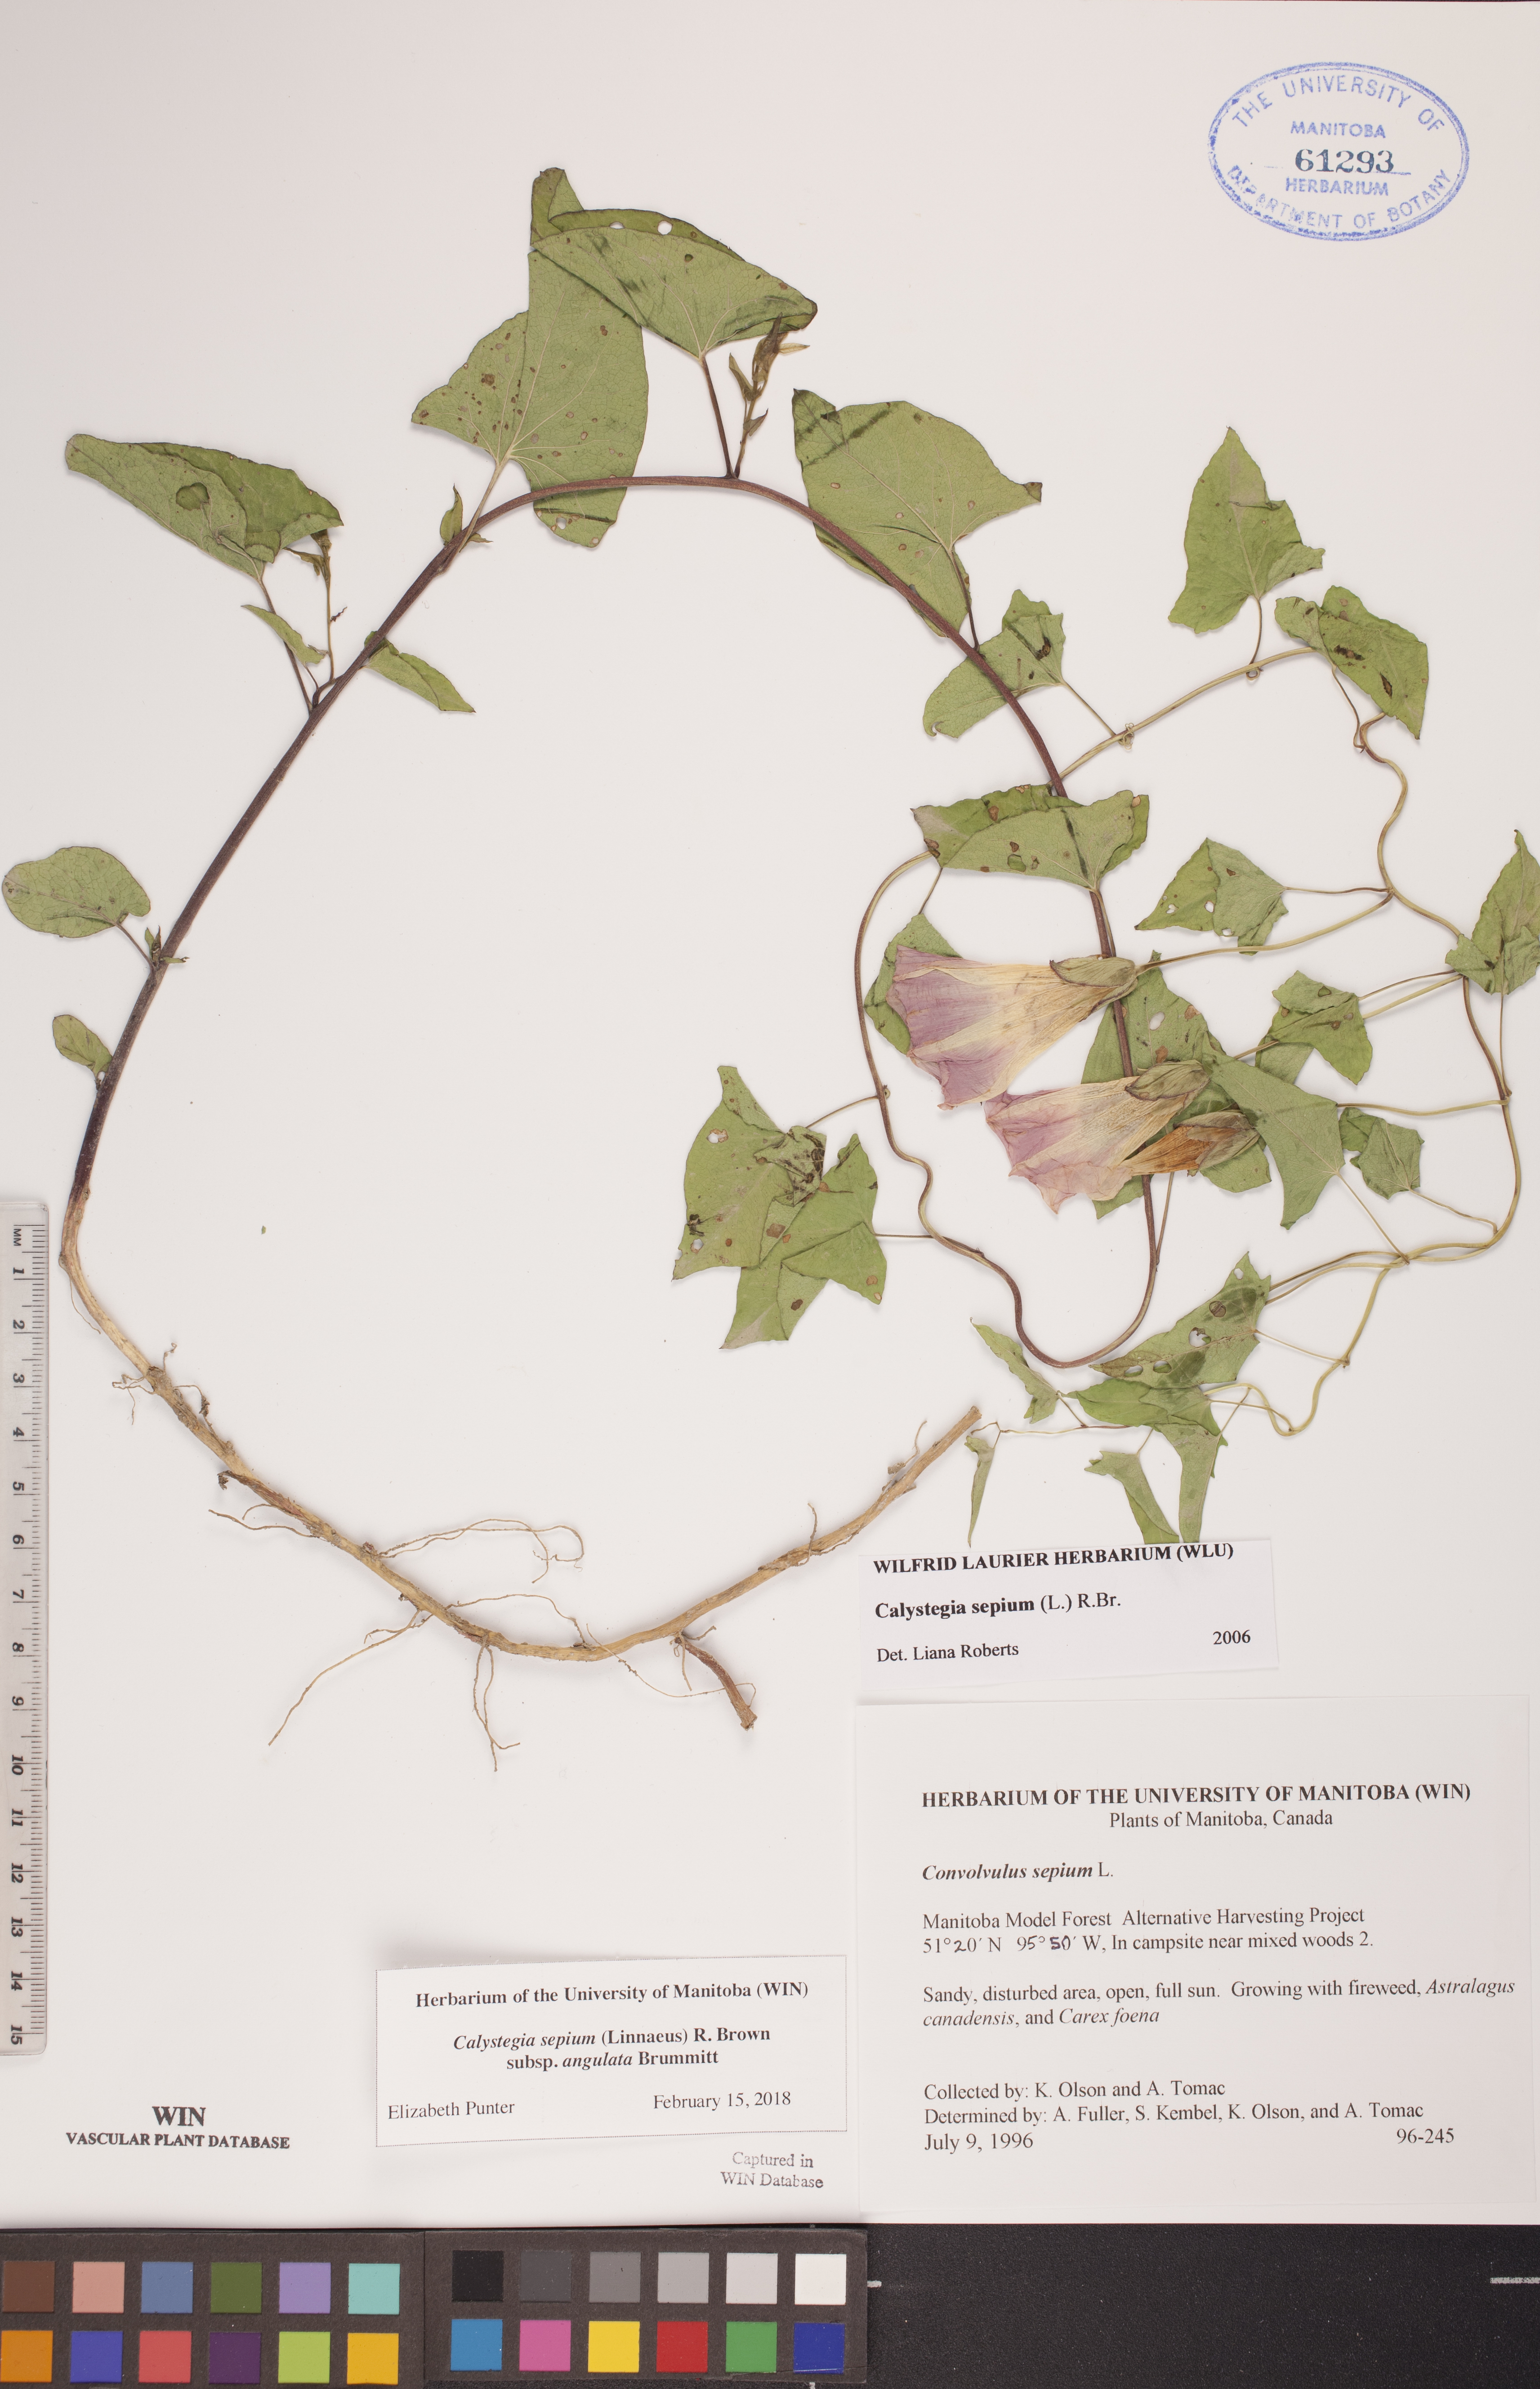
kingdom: Plantae
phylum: Tracheophyta
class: Magnoliopsida
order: Solanales
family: Convolvulaceae
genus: Calystegia
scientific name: Calystegia sepium
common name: Hedge bindweed
